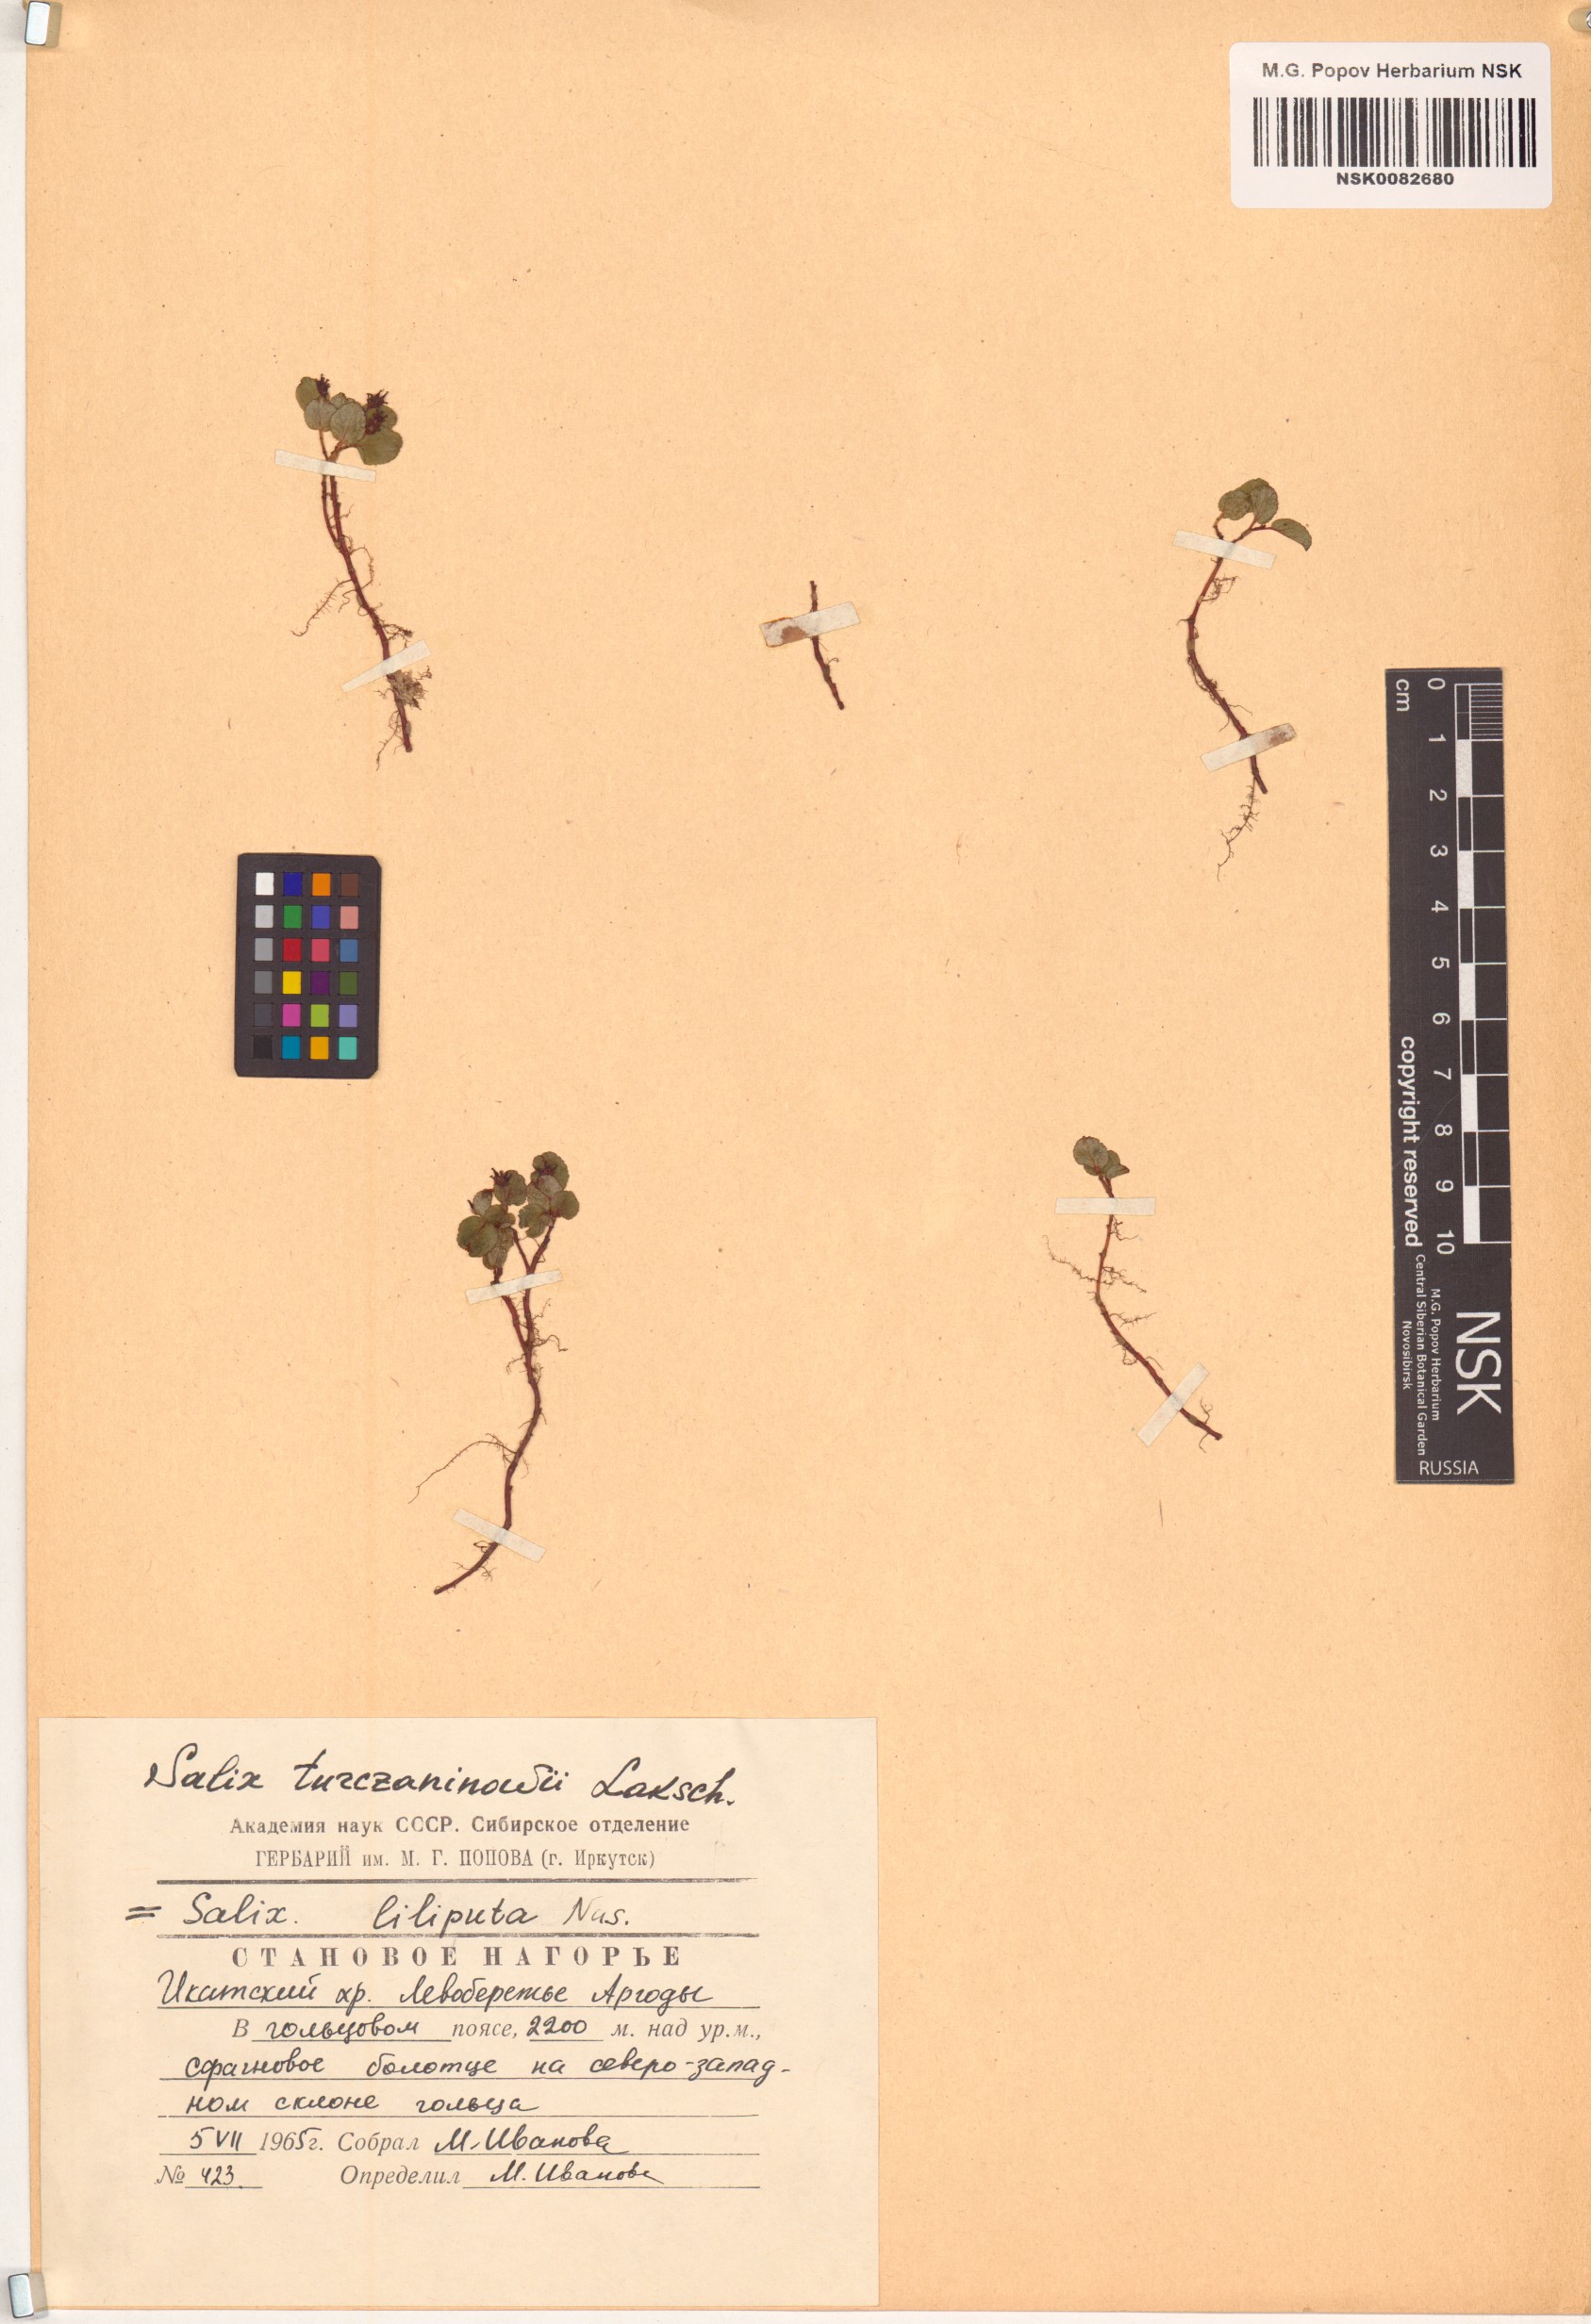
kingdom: Plantae
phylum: Tracheophyta
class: Magnoliopsida
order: Malpighiales
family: Salicaceae
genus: Salix
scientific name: Salix turczaninowii
